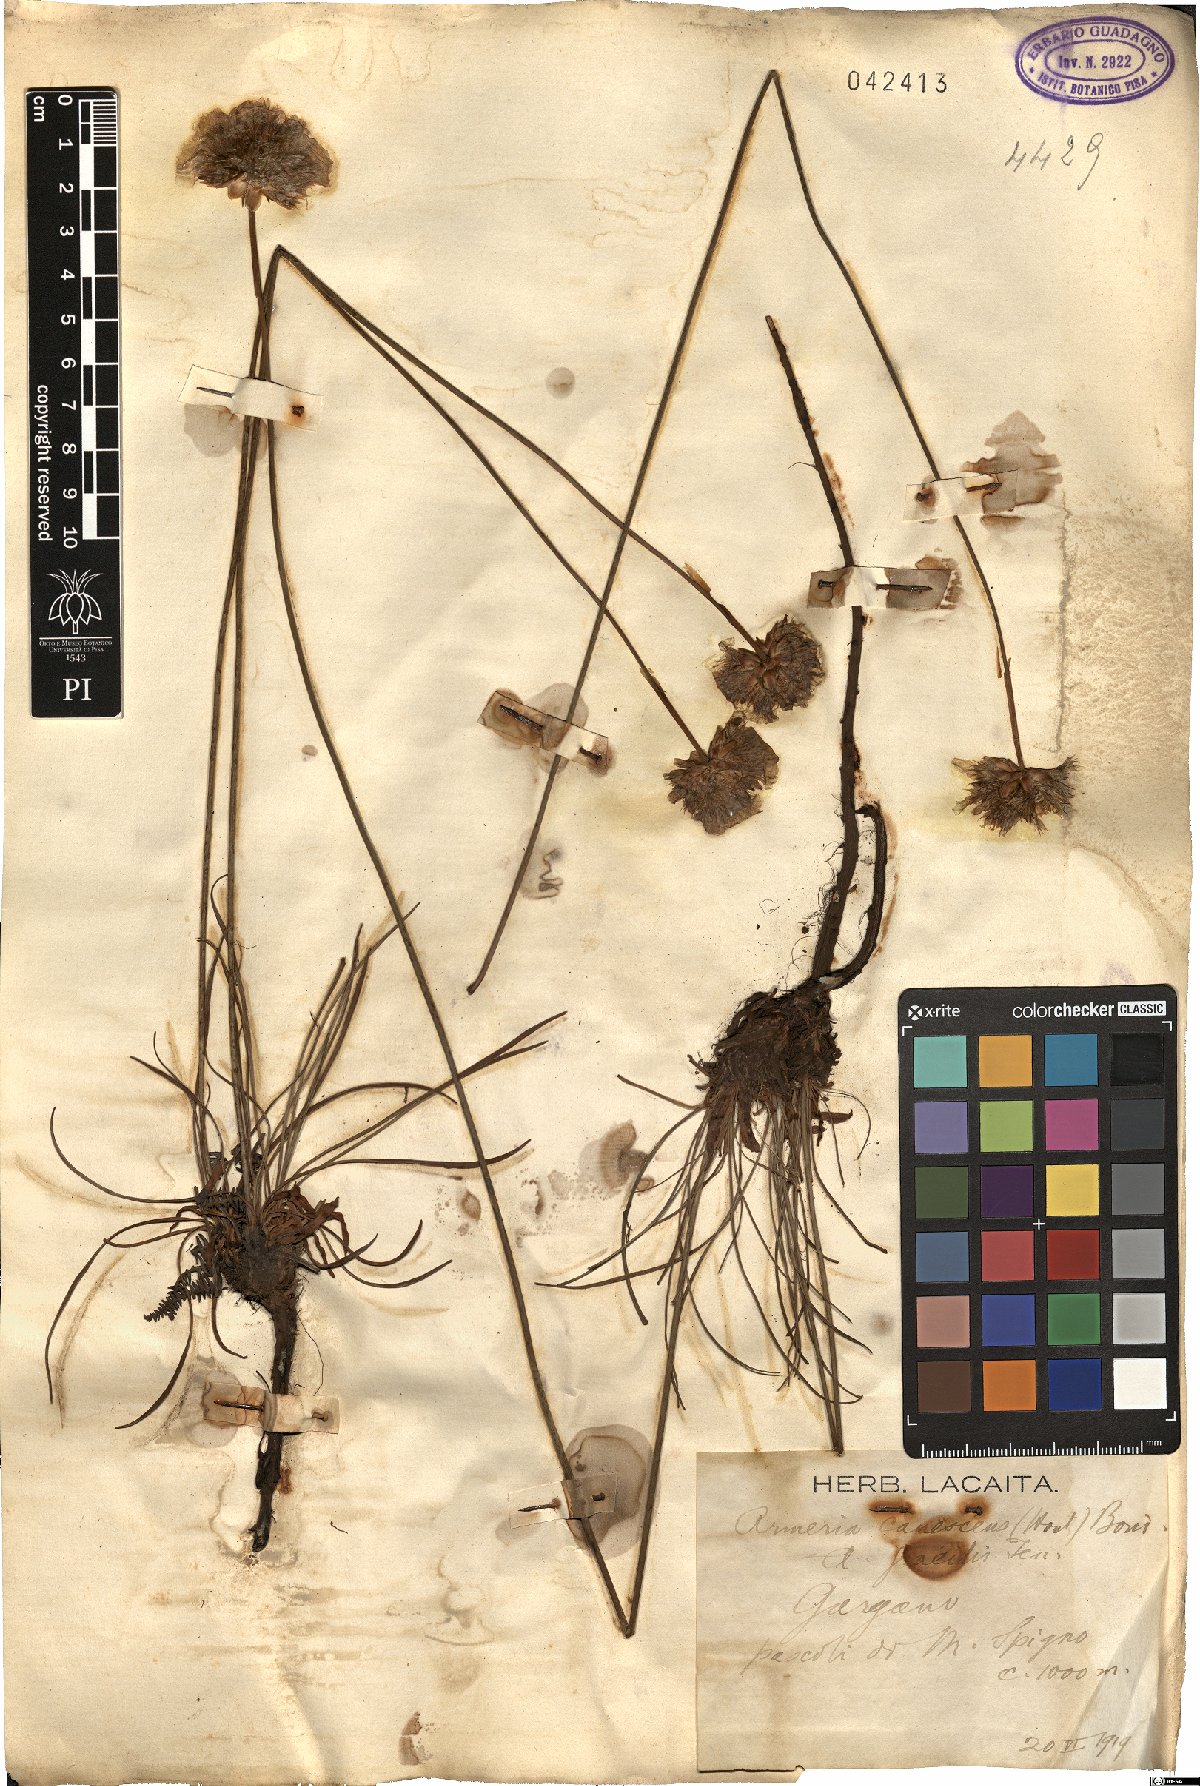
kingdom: Plantae
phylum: Tracheophyta
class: Magnoliopsida
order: Caryophyllales
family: Plumbaginaceae
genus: Armeria
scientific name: Armeria canescens
